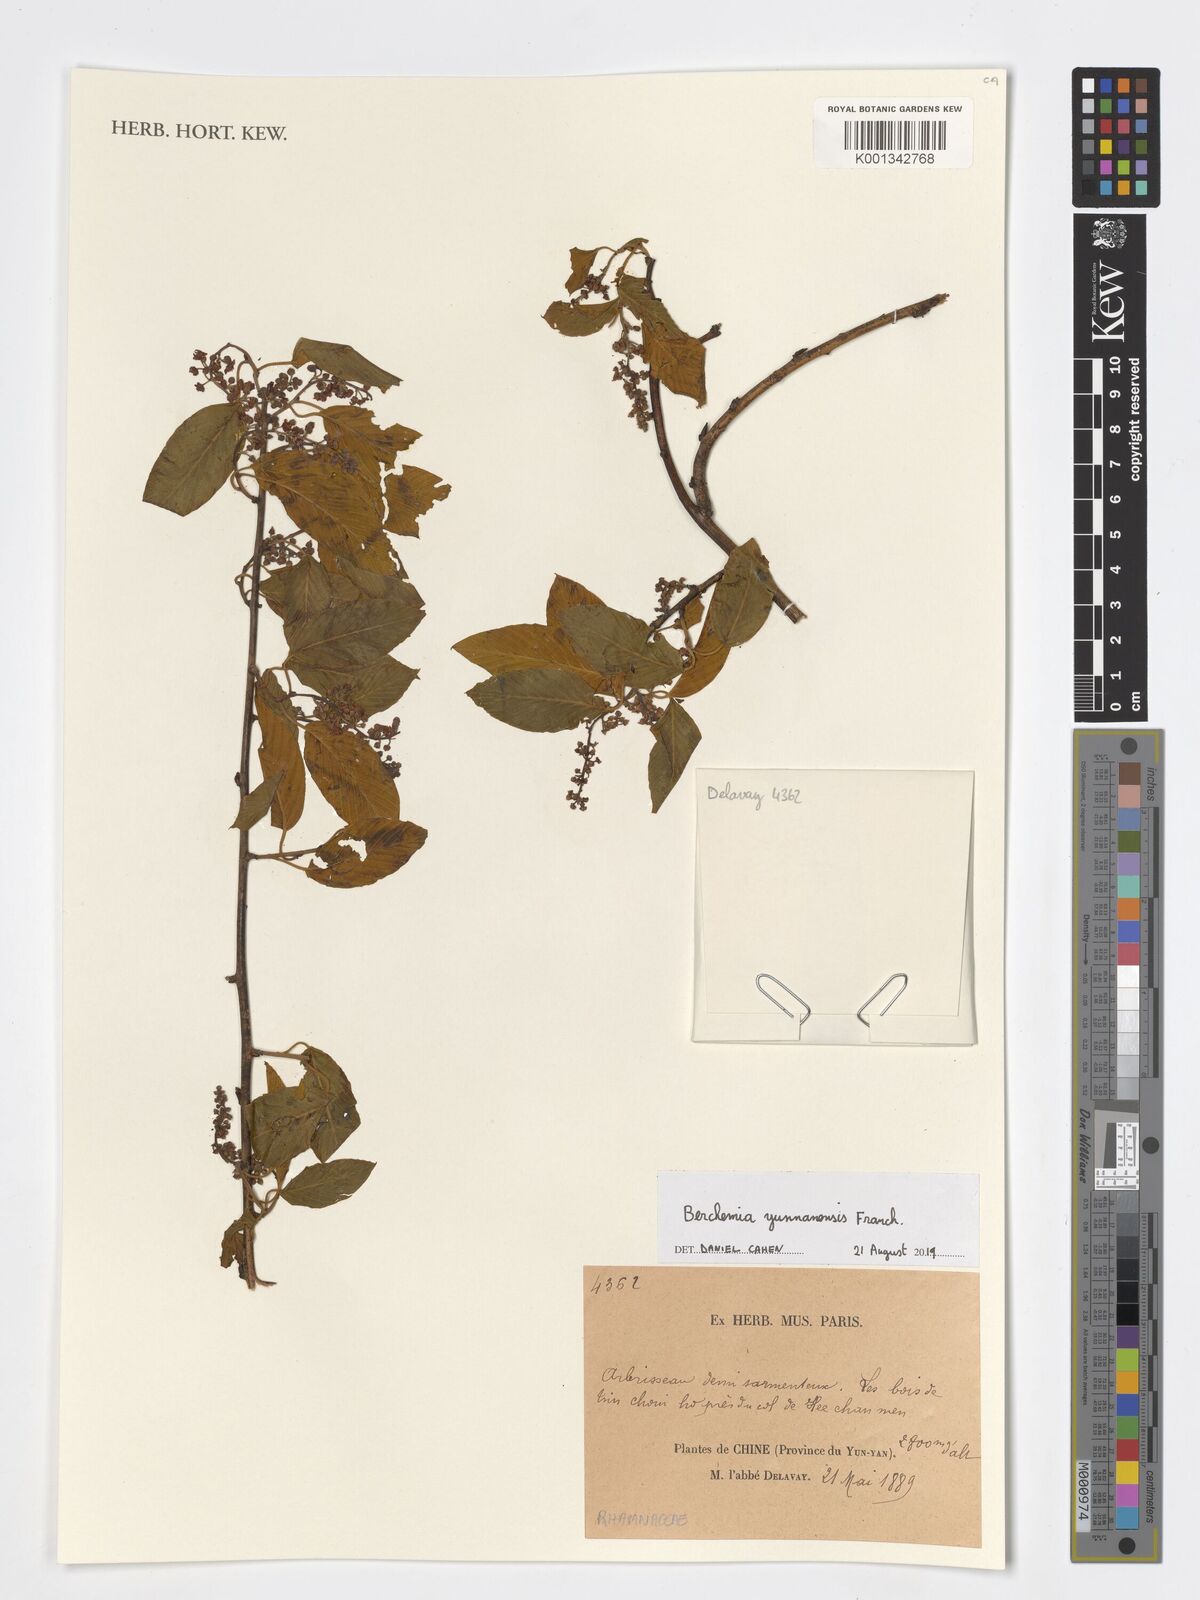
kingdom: Plantae
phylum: Tracheophyta
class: Magnoliopsida
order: Rosales
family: Rhamnaceae
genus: Berchemia
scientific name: Berchemia yunnanensis
